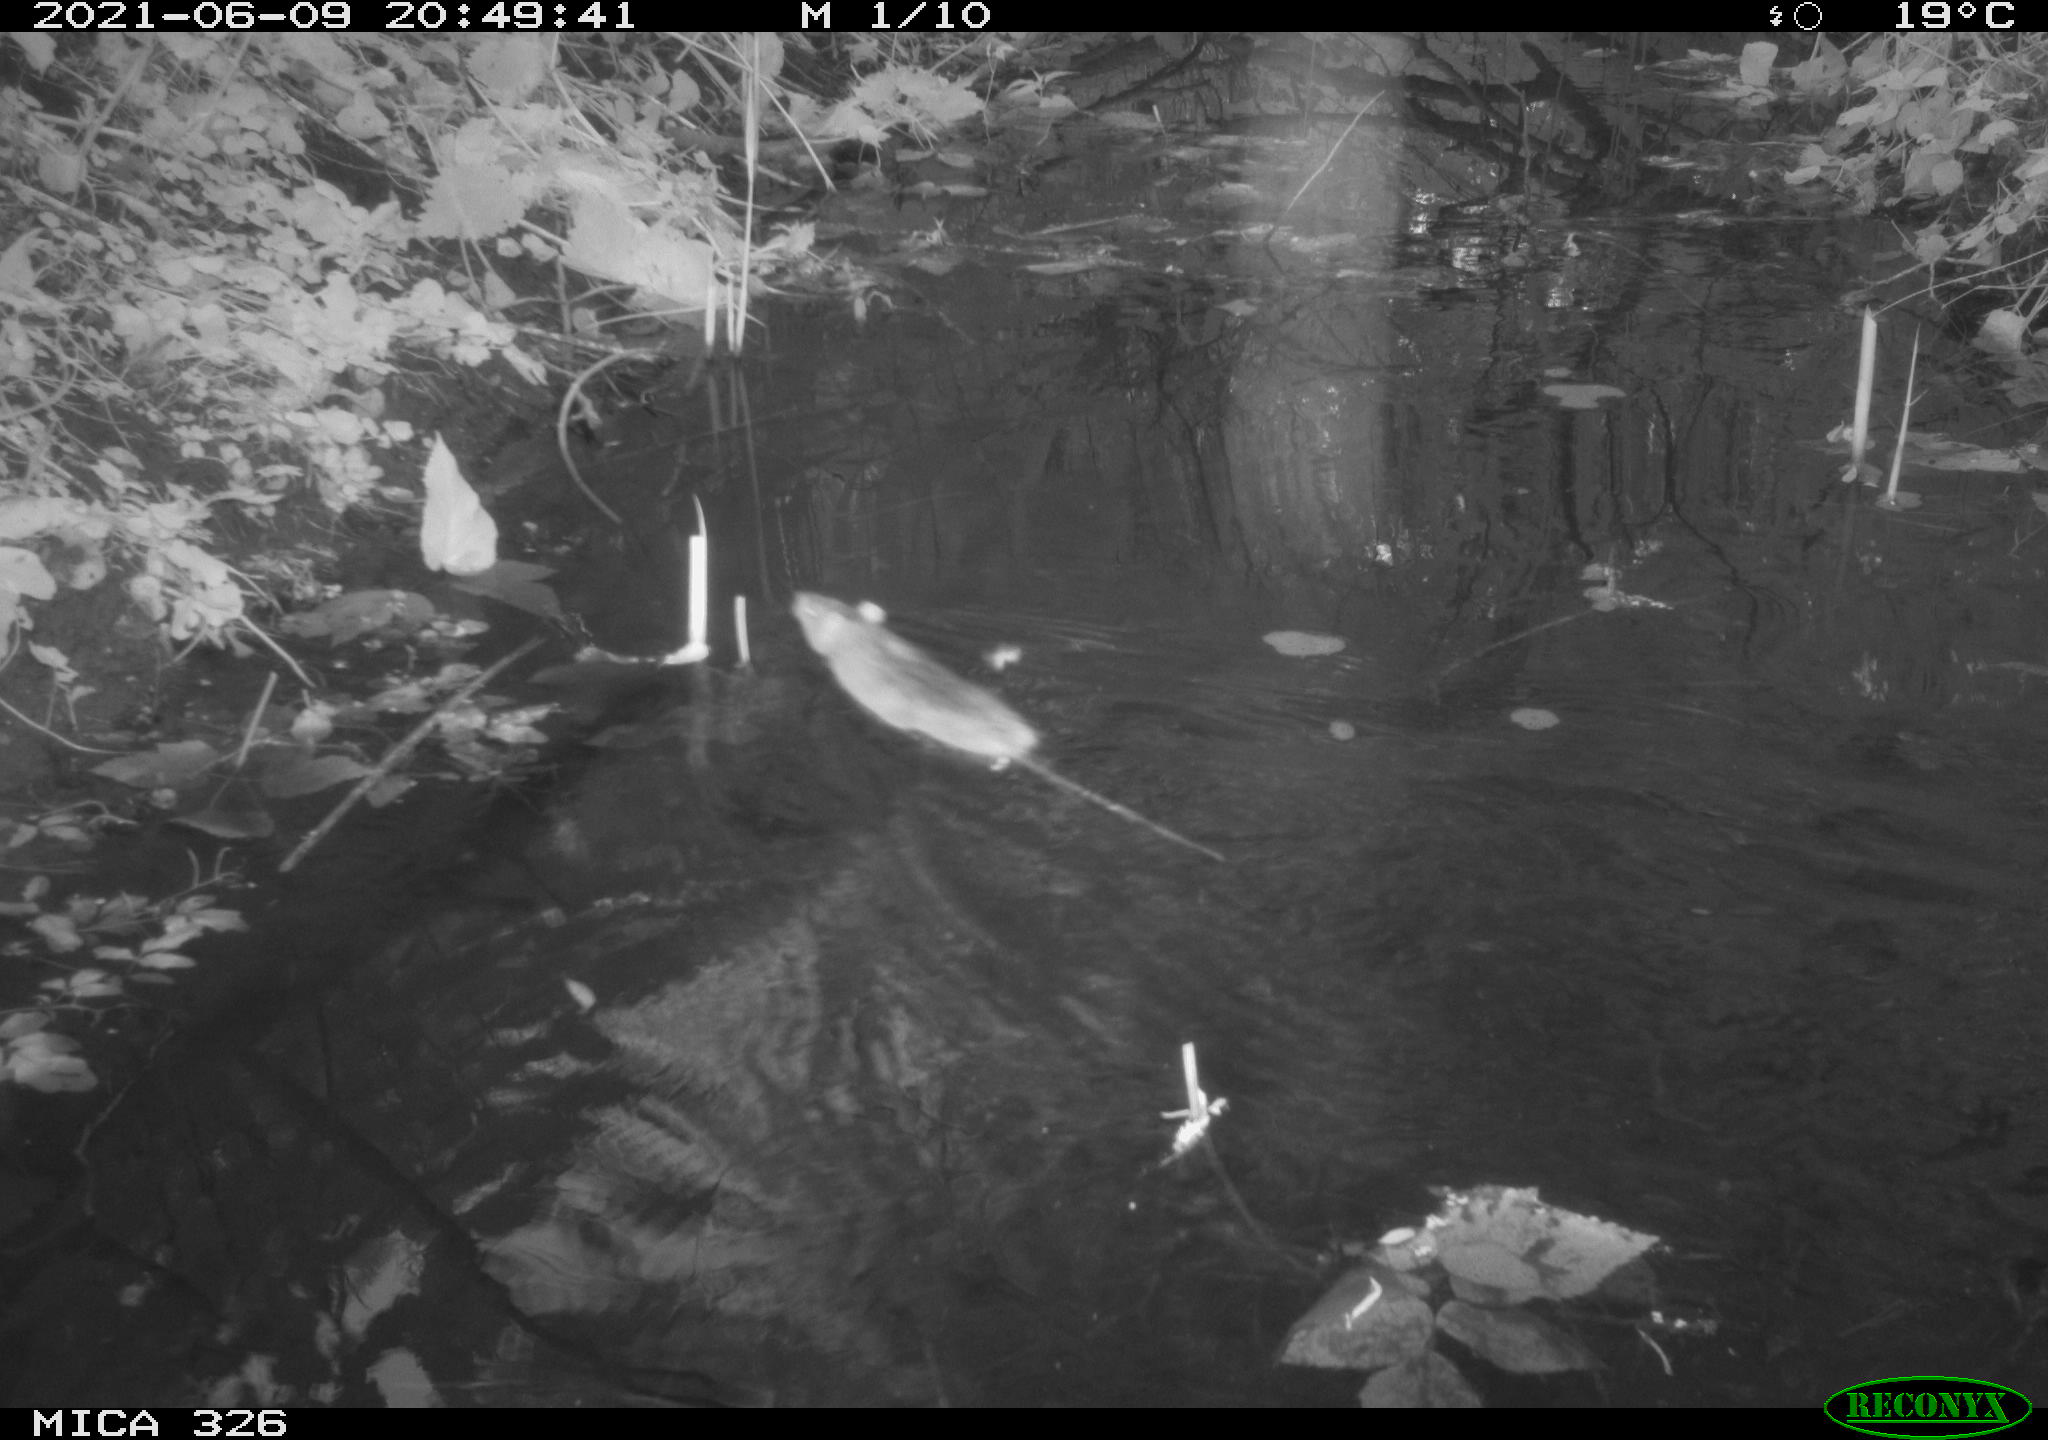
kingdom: Animalia
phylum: Chordata
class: Mammalia
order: Rodentia
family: Muridae
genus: Rattus
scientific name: Rattus norvegicus
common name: Brown rat
